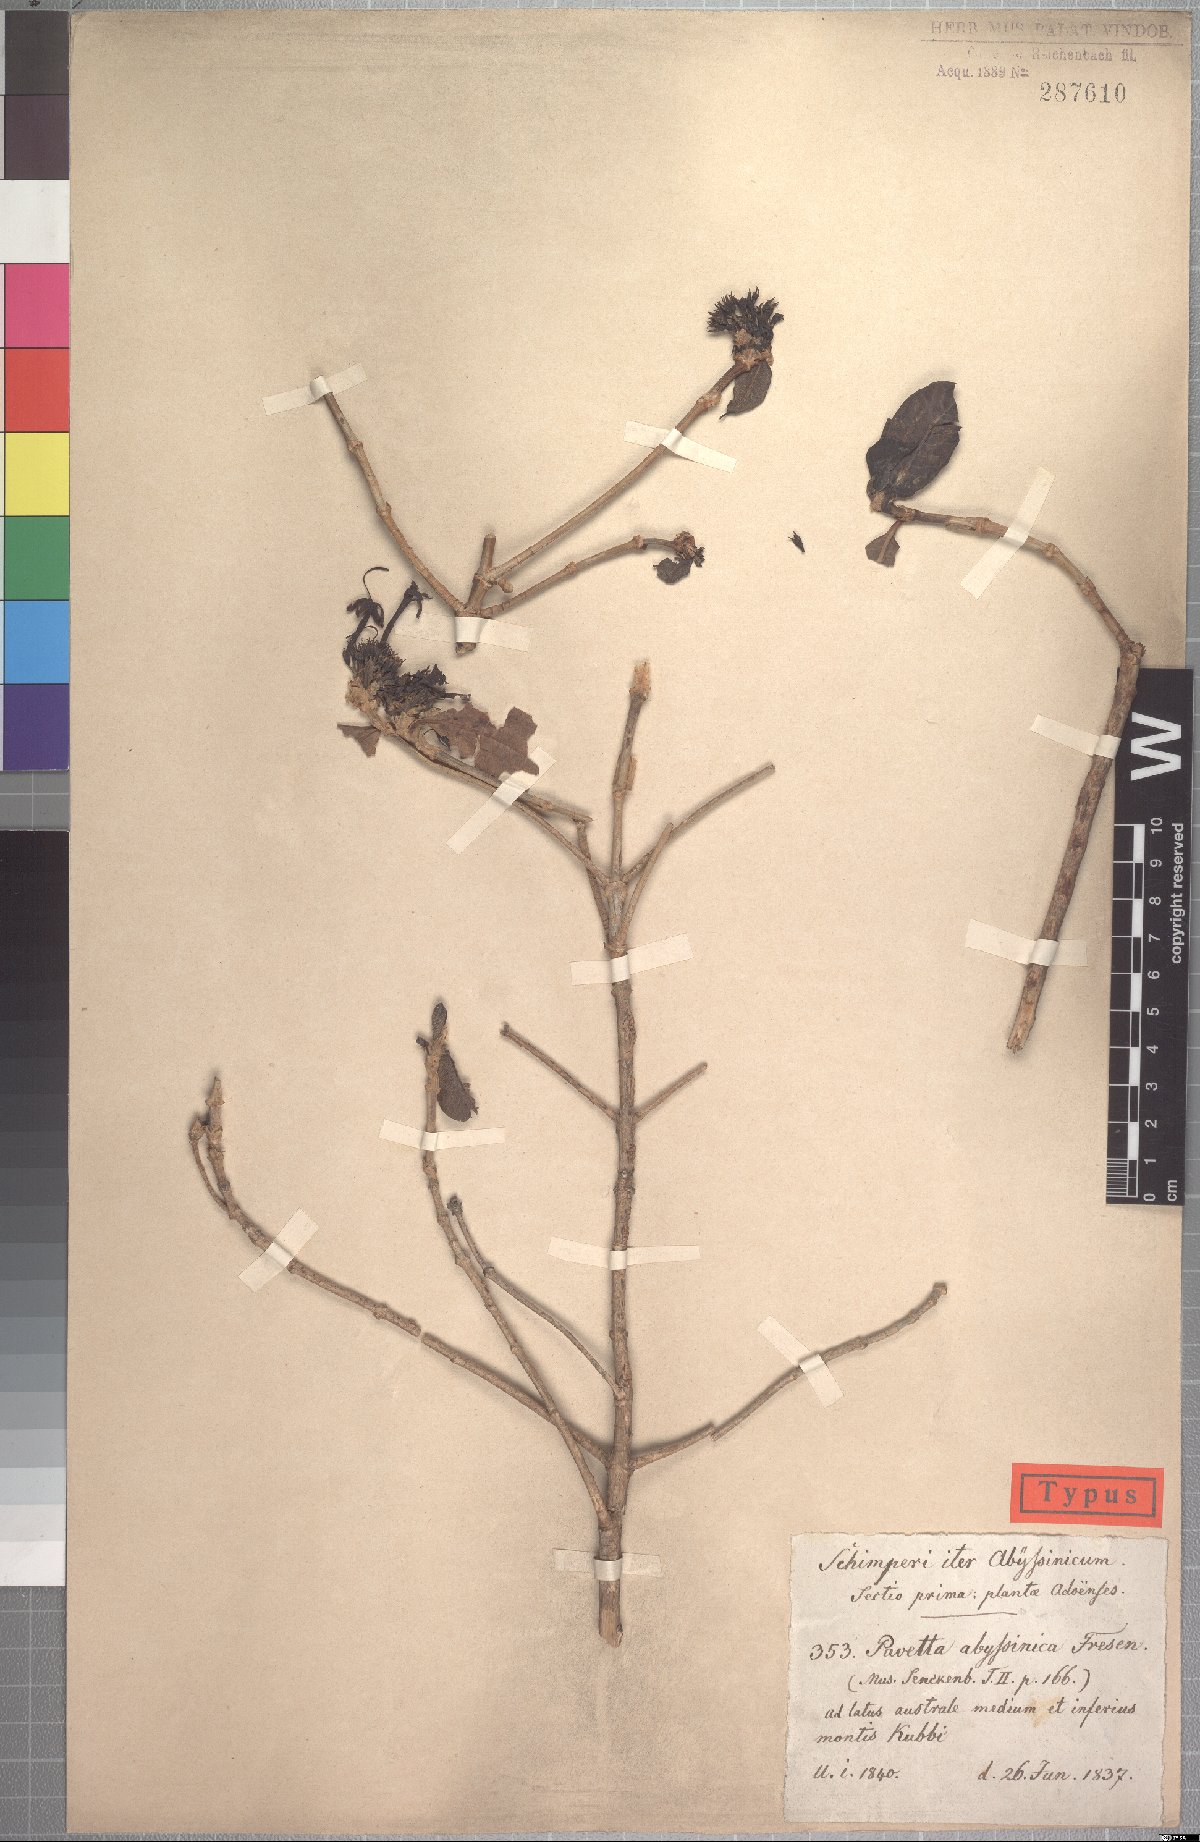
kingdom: Plantae
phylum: Tracheophyta
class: Magnoliopsida
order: Gentianales
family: Rubiaceae
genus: Pavetta
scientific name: Pavetta abyssinica
